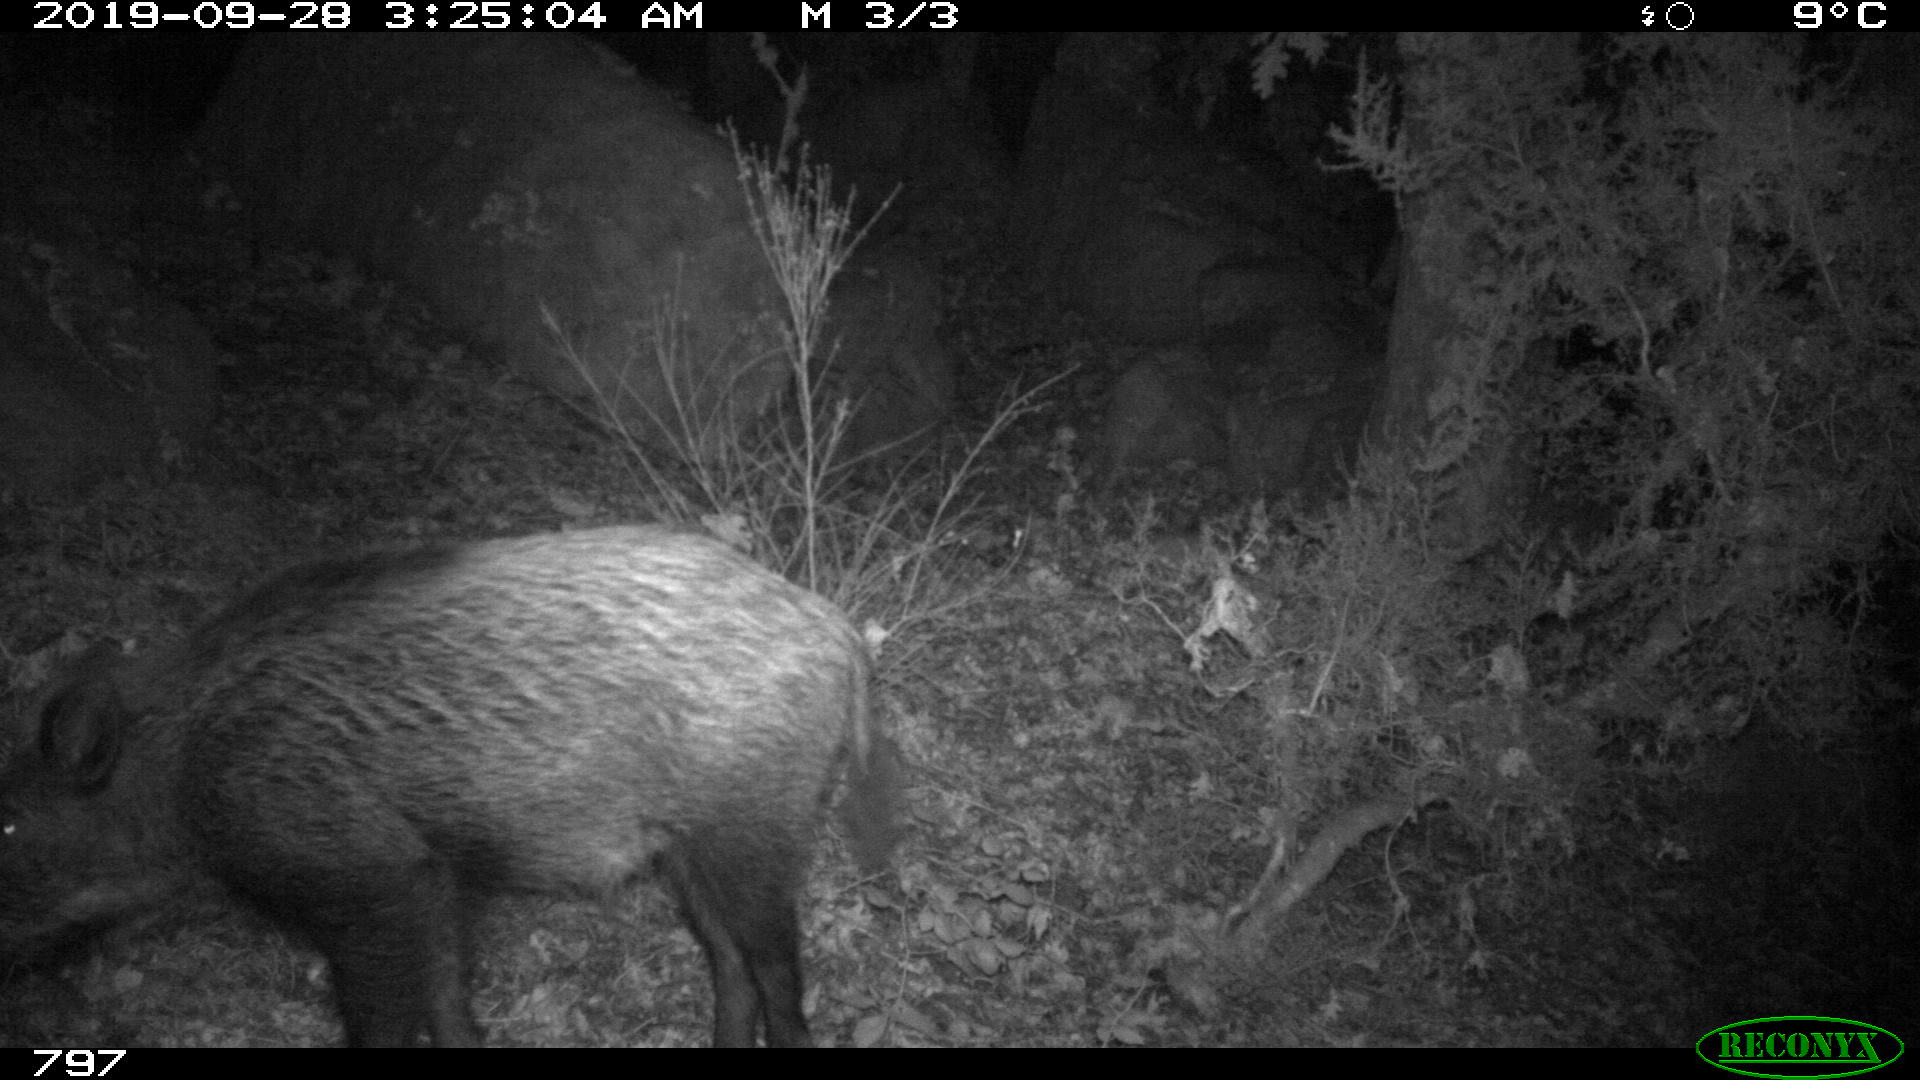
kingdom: Animalia
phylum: Chordata
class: Mammalia
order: Artiodactyla
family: Suidae
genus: Sus
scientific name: Sus scrofa
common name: Wild boar
